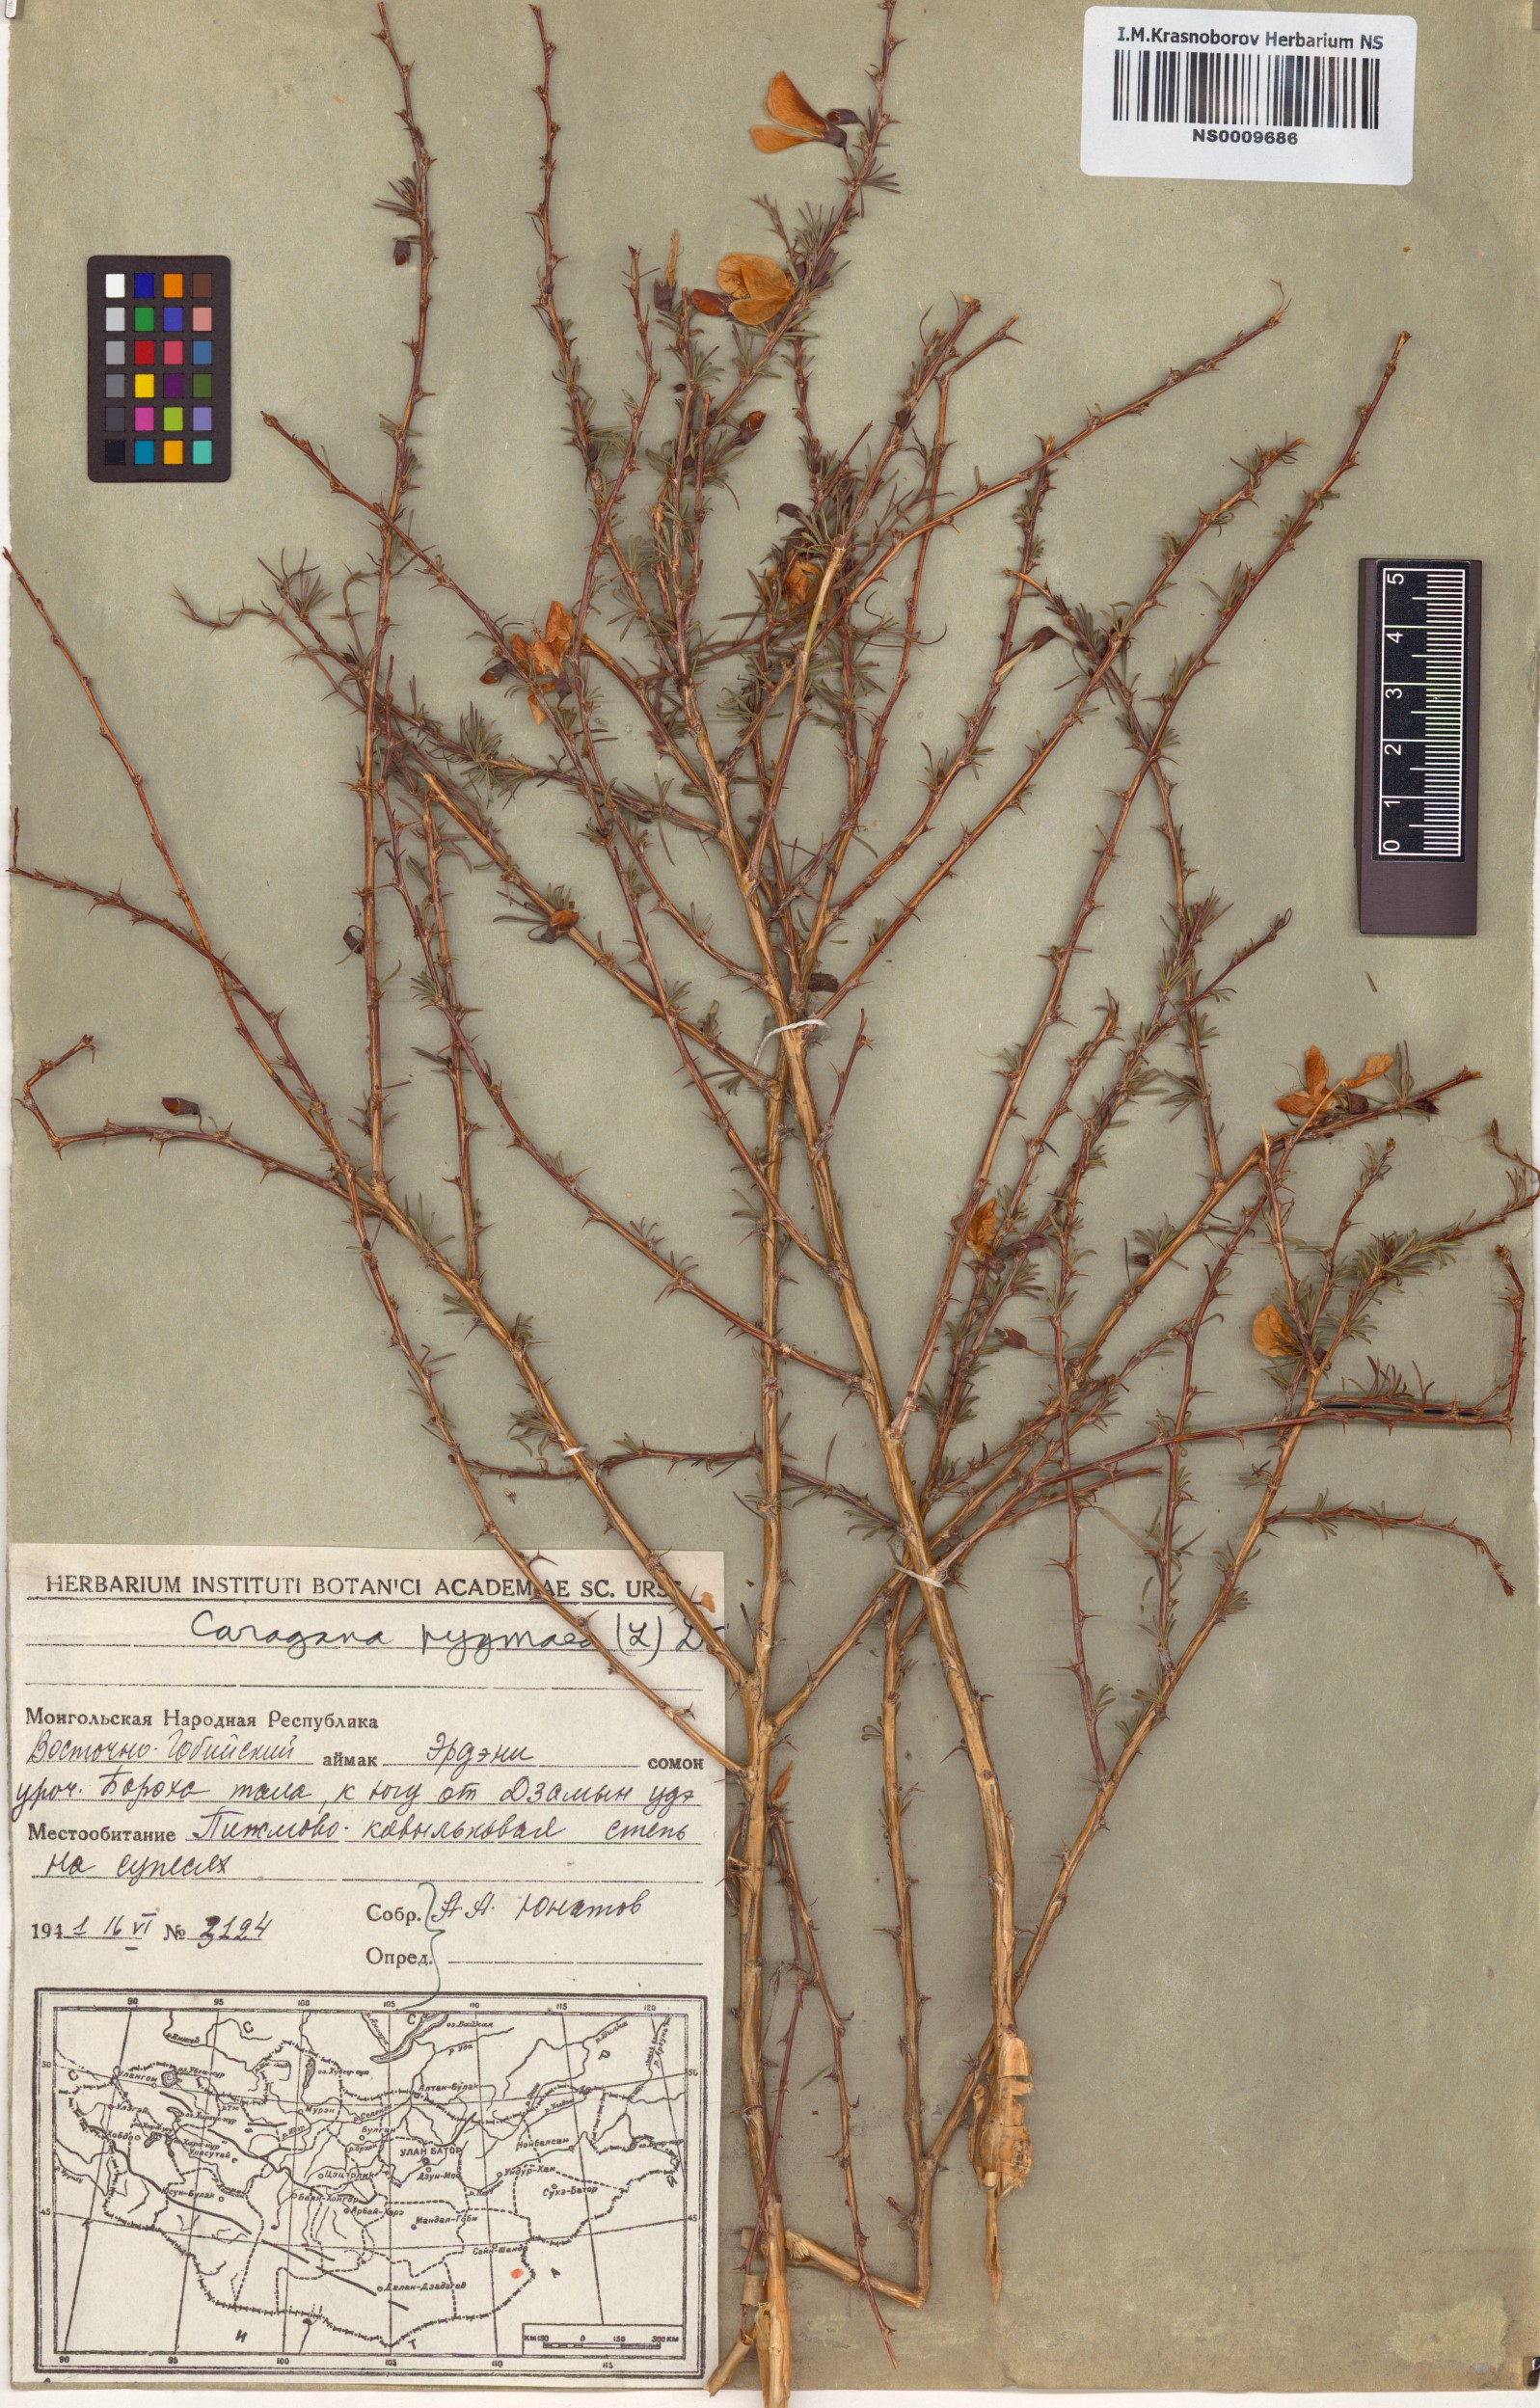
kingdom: Plantae
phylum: Tracheophyta
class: Magnoliopsida
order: Fabales
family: Fabaceae
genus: Caragana
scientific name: Caragana pygmaea
